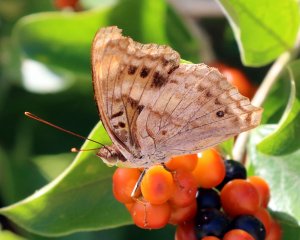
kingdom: Animalia
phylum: Arthropoda
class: Insecta
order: Lepidoptera
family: Nymphalidae
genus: Doxocopa
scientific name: Doxocopa pavon
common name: Pavon Emperor
